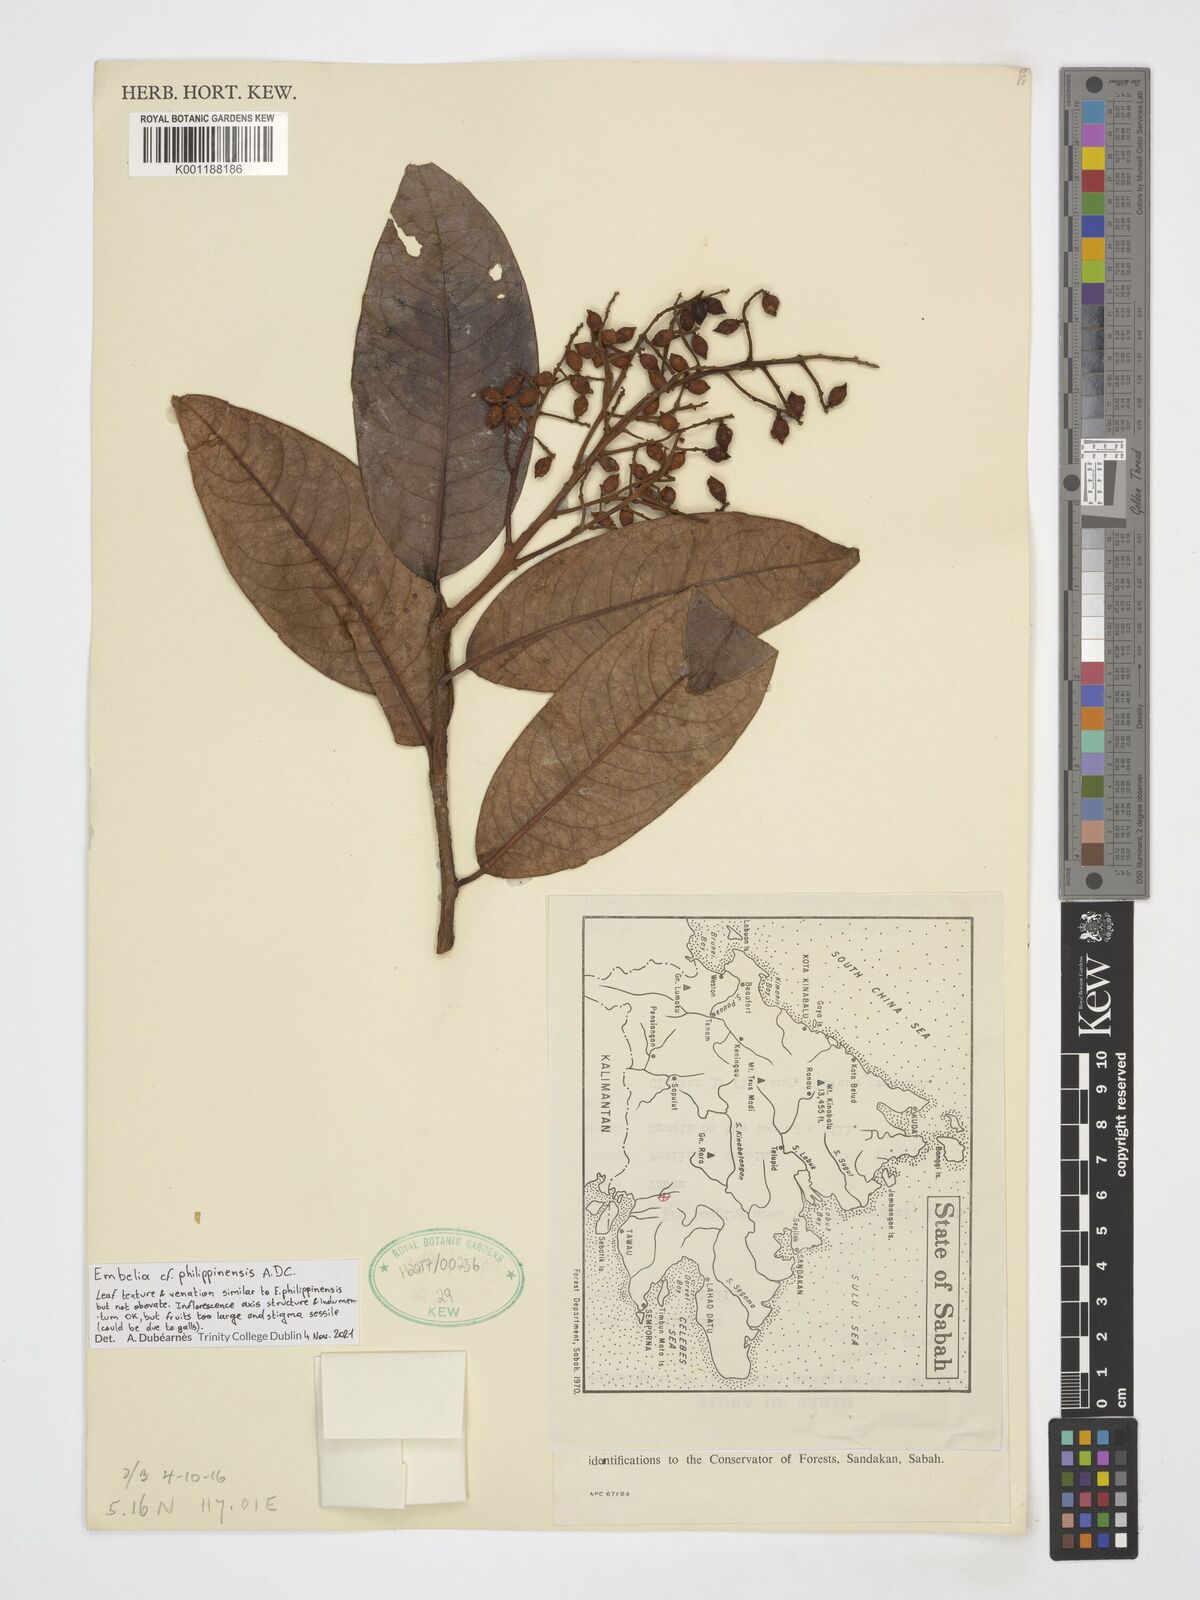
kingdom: Plantae
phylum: Tracheophyta
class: Magnoliopsida
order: Ericales
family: Primulaceae
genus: Embelia
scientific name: Embelia philippinensis
